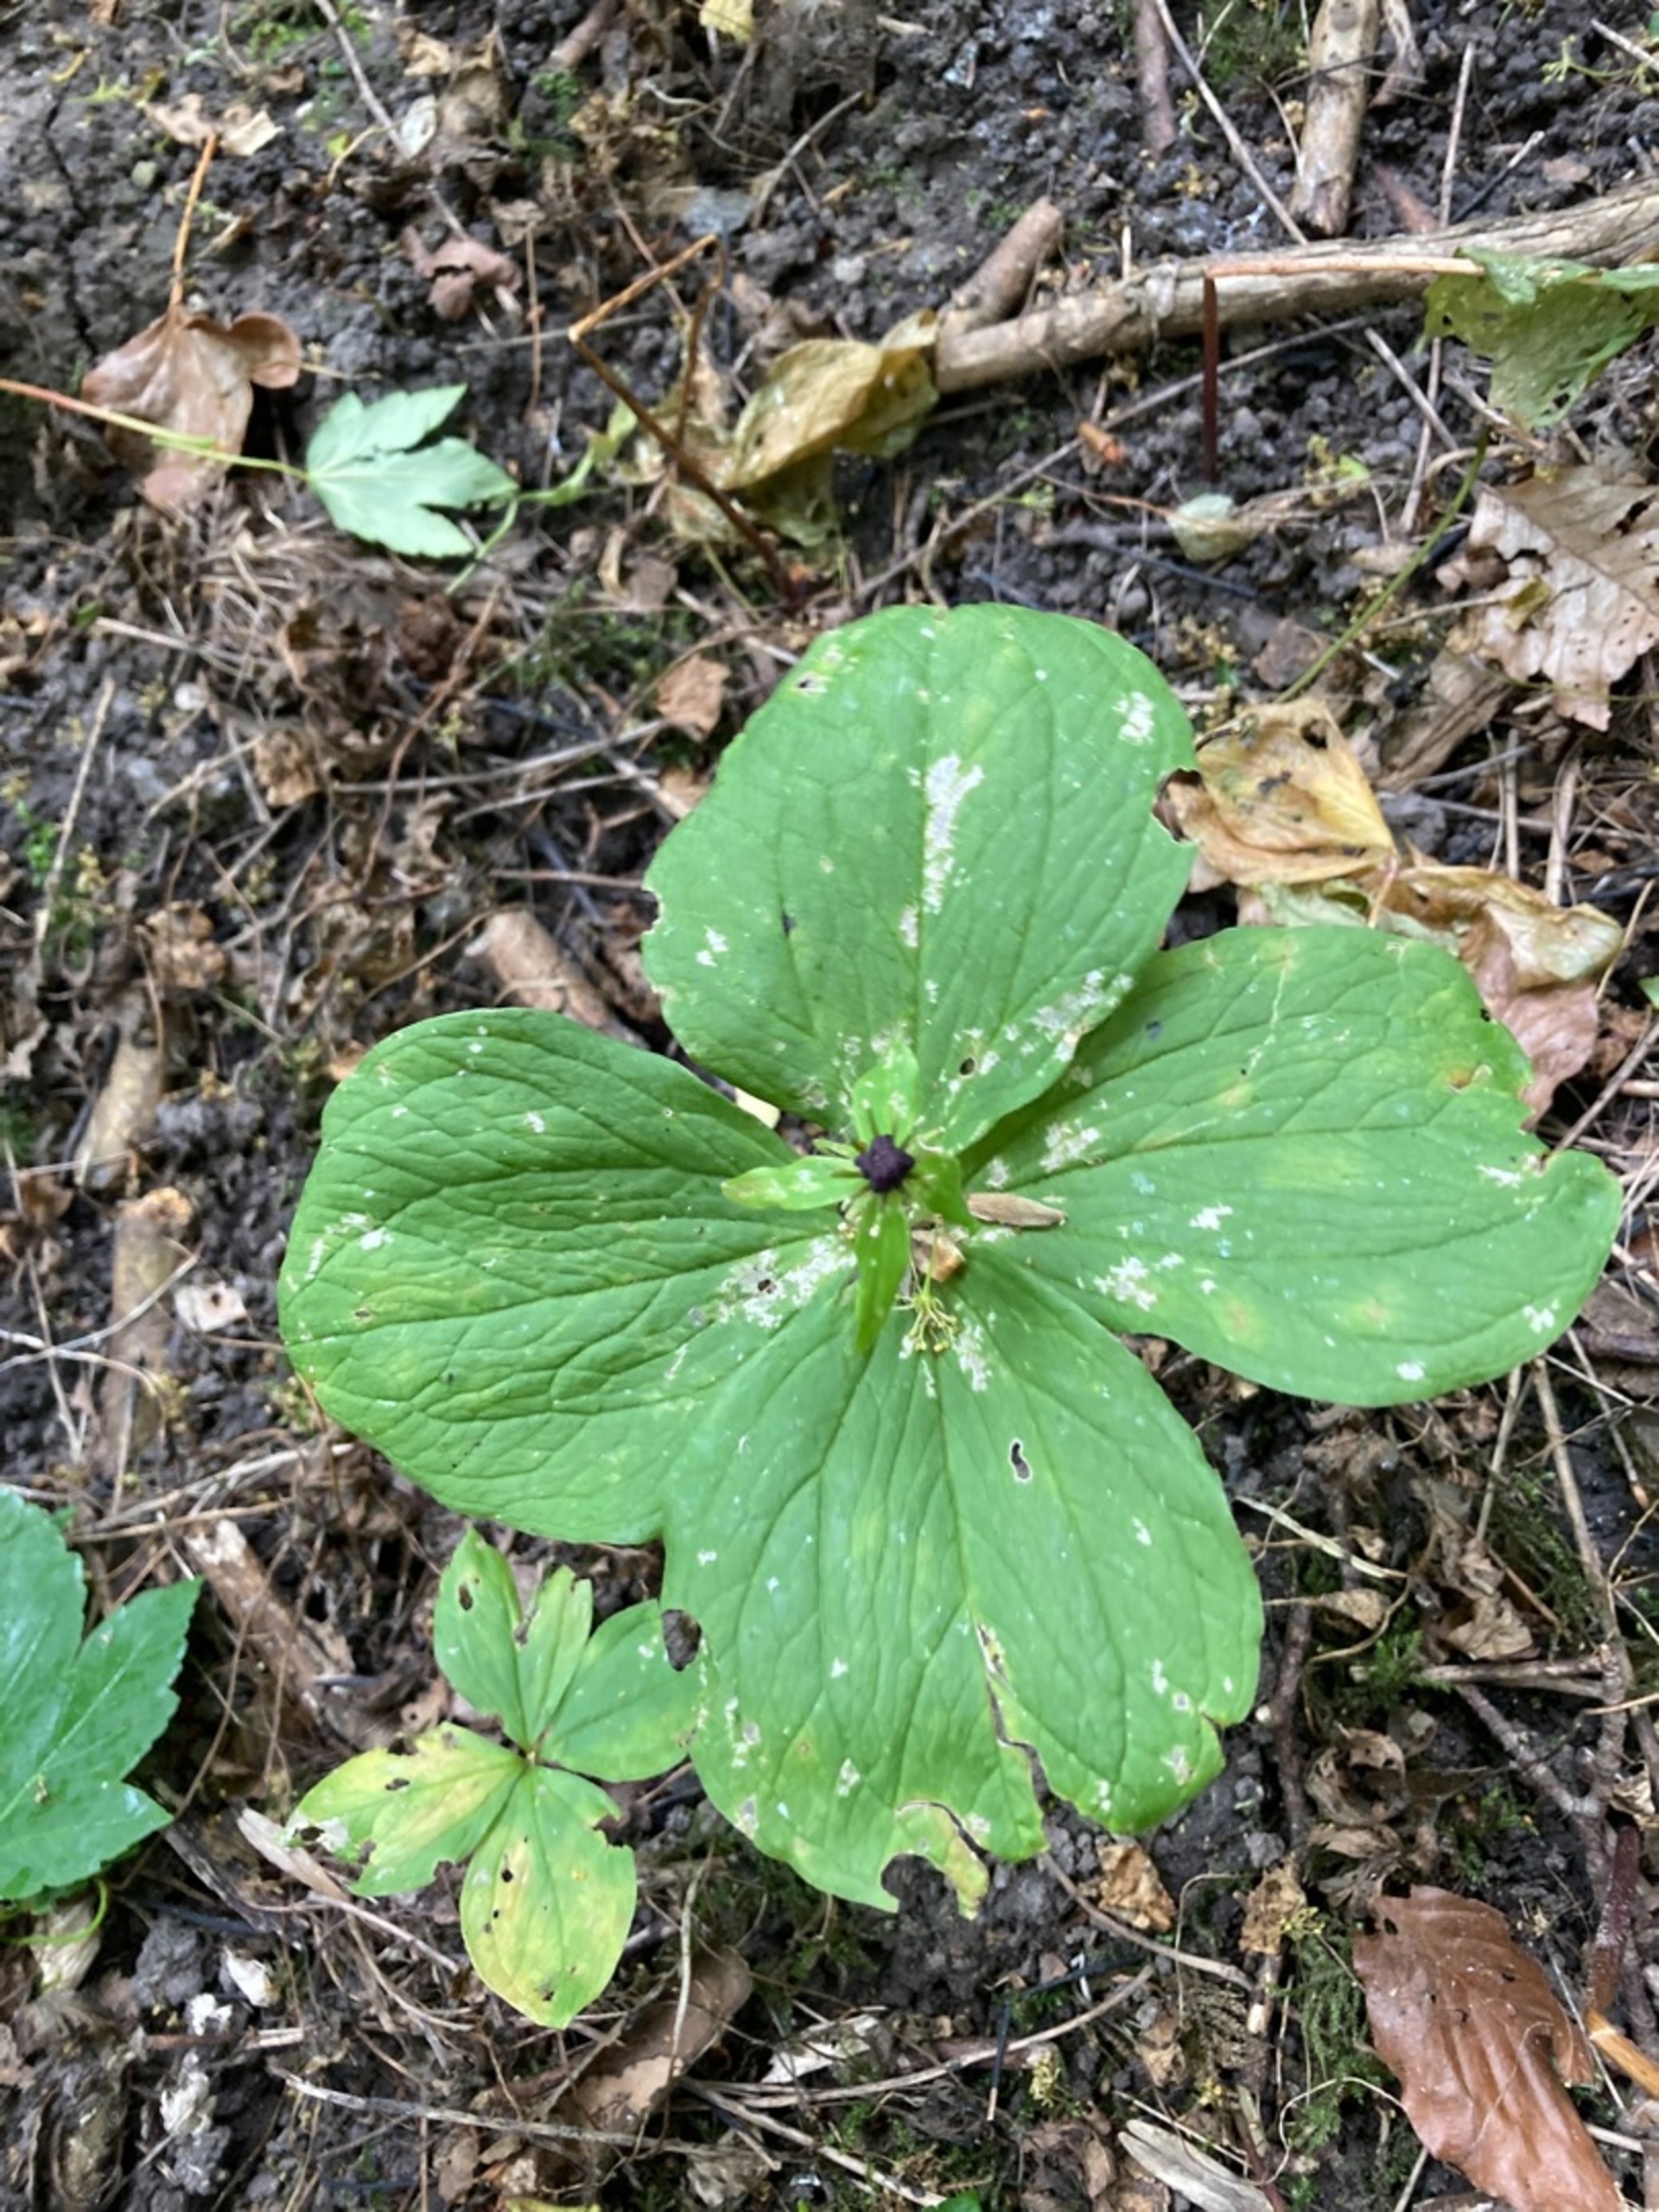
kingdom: Plantae
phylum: Tracheophyta
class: Liliopsida
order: Liliales
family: Melanthiaceae
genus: Paris
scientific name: Paris quadrifolia
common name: Firblad
